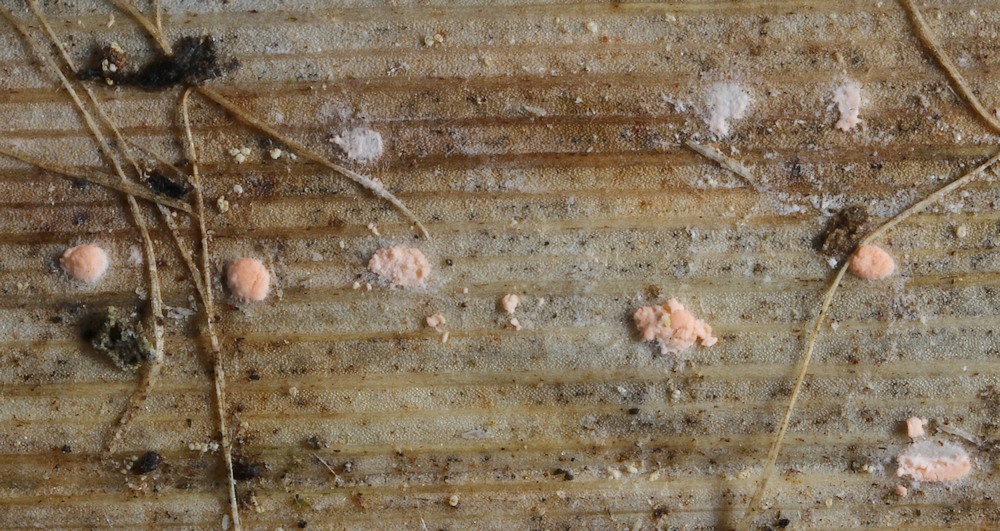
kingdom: Fungi
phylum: Ascomycota
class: Sordariomycetes
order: Hypocreales
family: Nectriaceae
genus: Volutella
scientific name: Volutella arundinis
